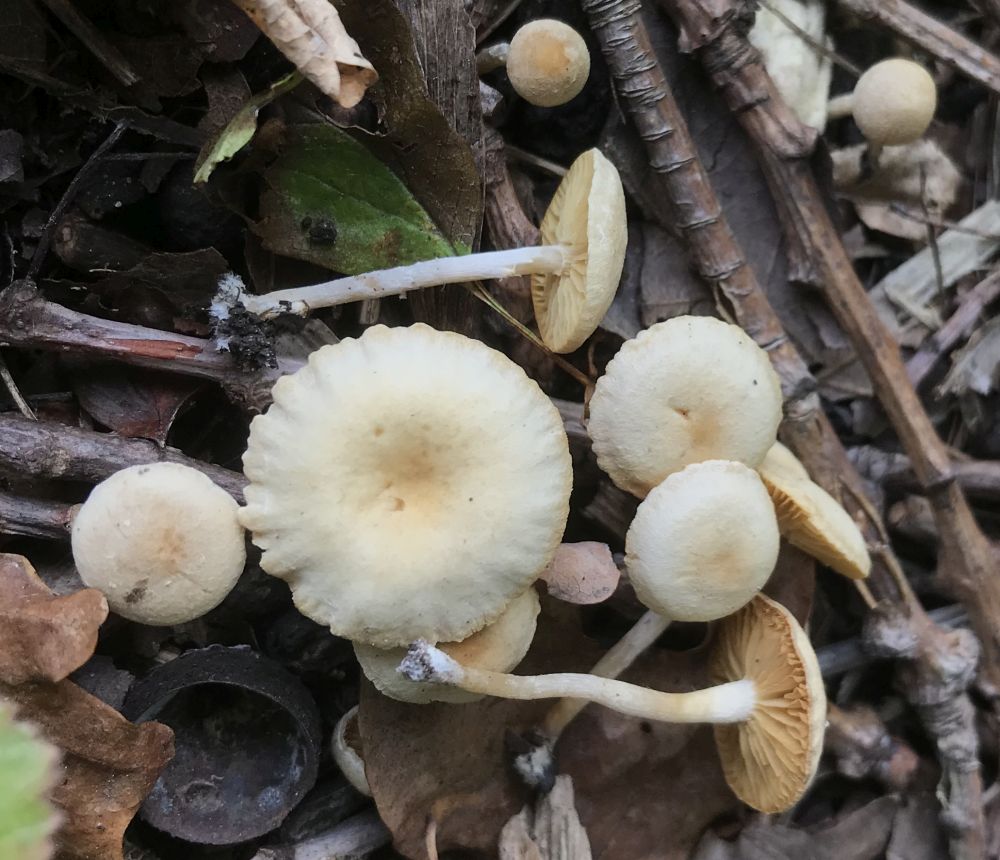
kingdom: Fungi
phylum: Basidiomycota
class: Agaricomycetes
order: Agaricales
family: Tubariaceae
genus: Tubaria
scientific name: Tubaria dispersa
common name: tjørne-fnughat
